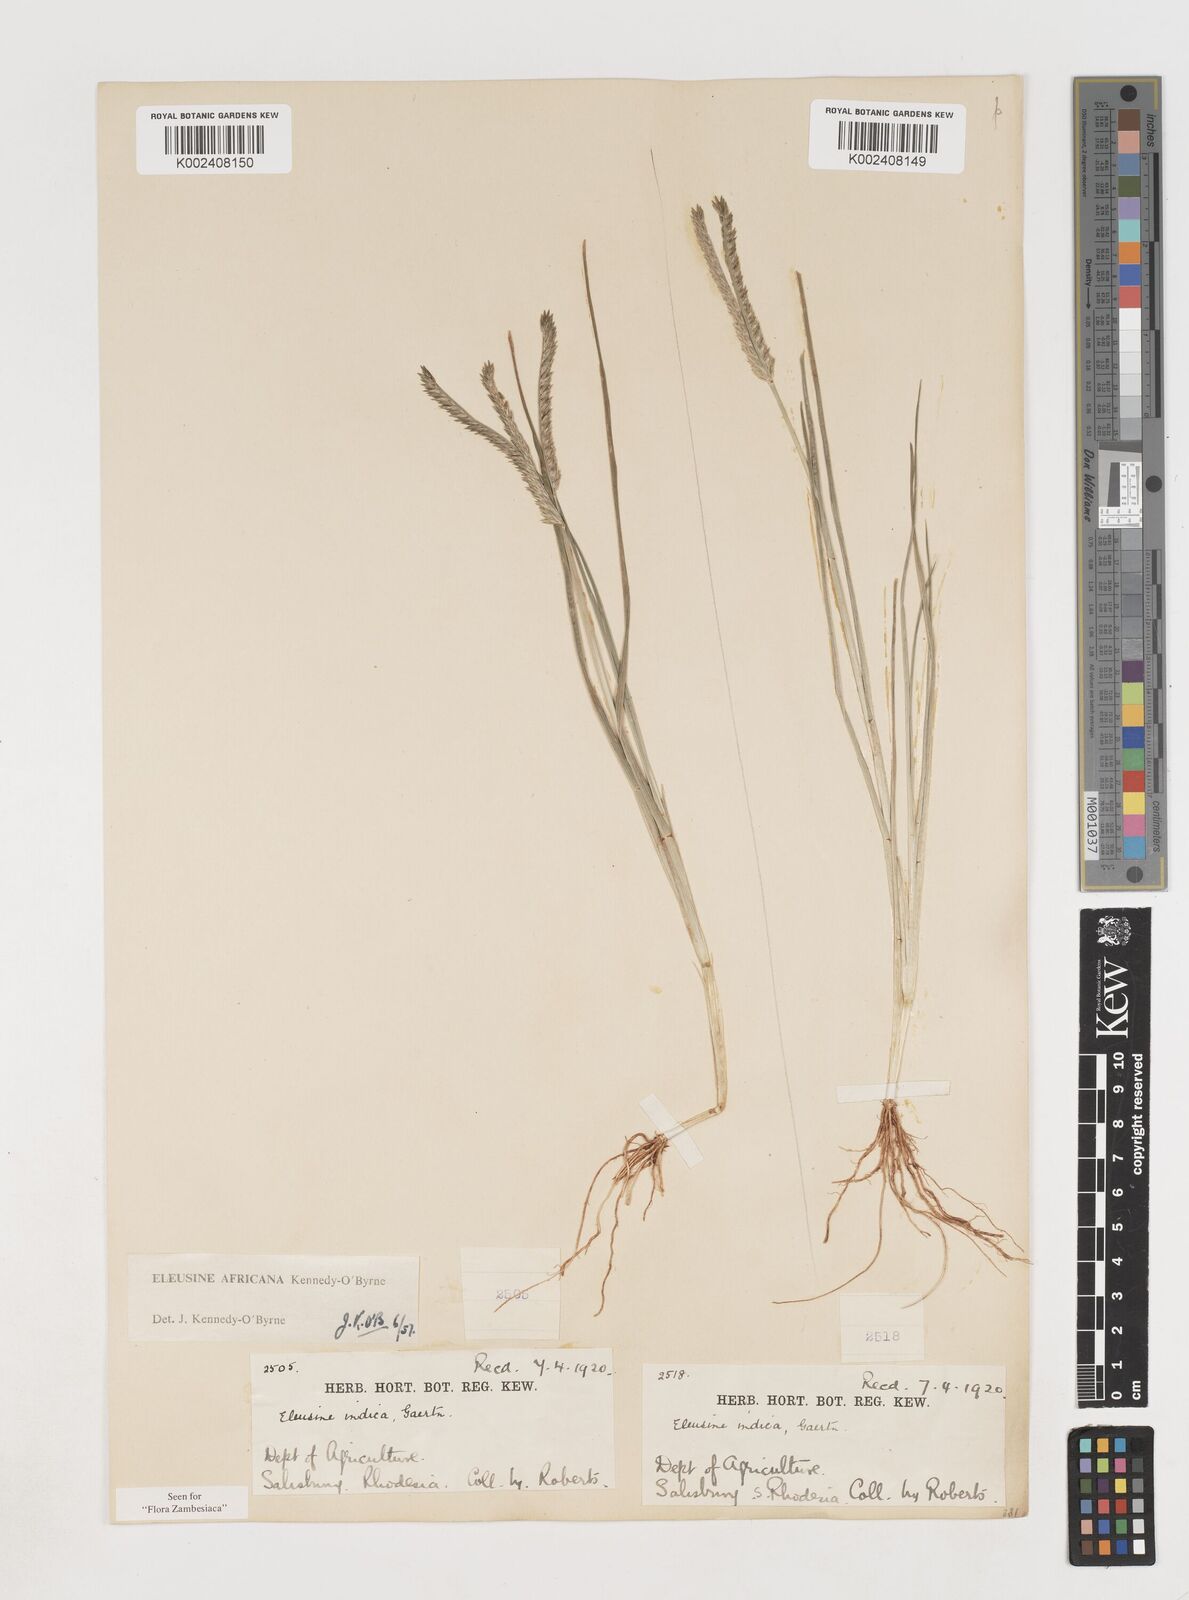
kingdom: Plantae
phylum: Tracheophyta
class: Liliopsida
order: Poales
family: Poaceae
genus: Eleusine
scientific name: Eleusine africana
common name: Wild african finger millet
